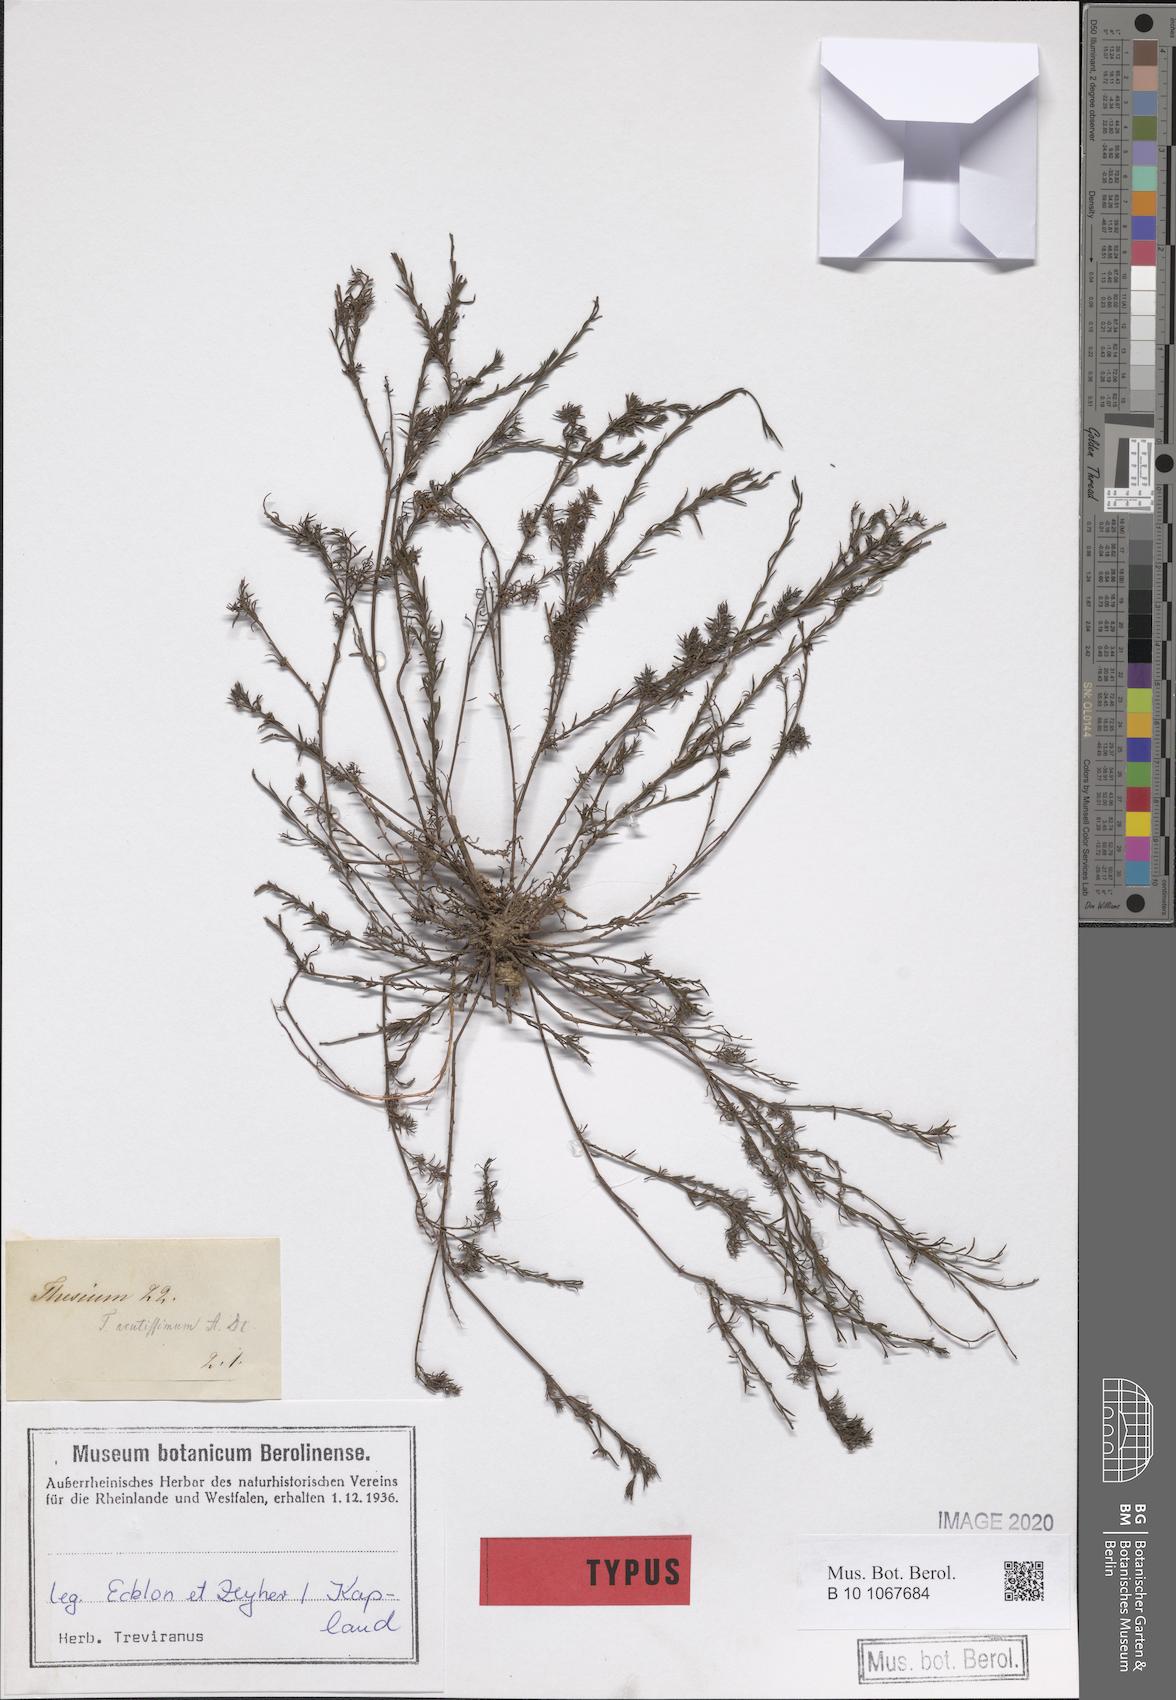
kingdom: Plantae
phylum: Tracheophyta
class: Magnoliopsida
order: Santalales
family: Thesiaceae
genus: Thesium
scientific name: Thesium acutissimum
